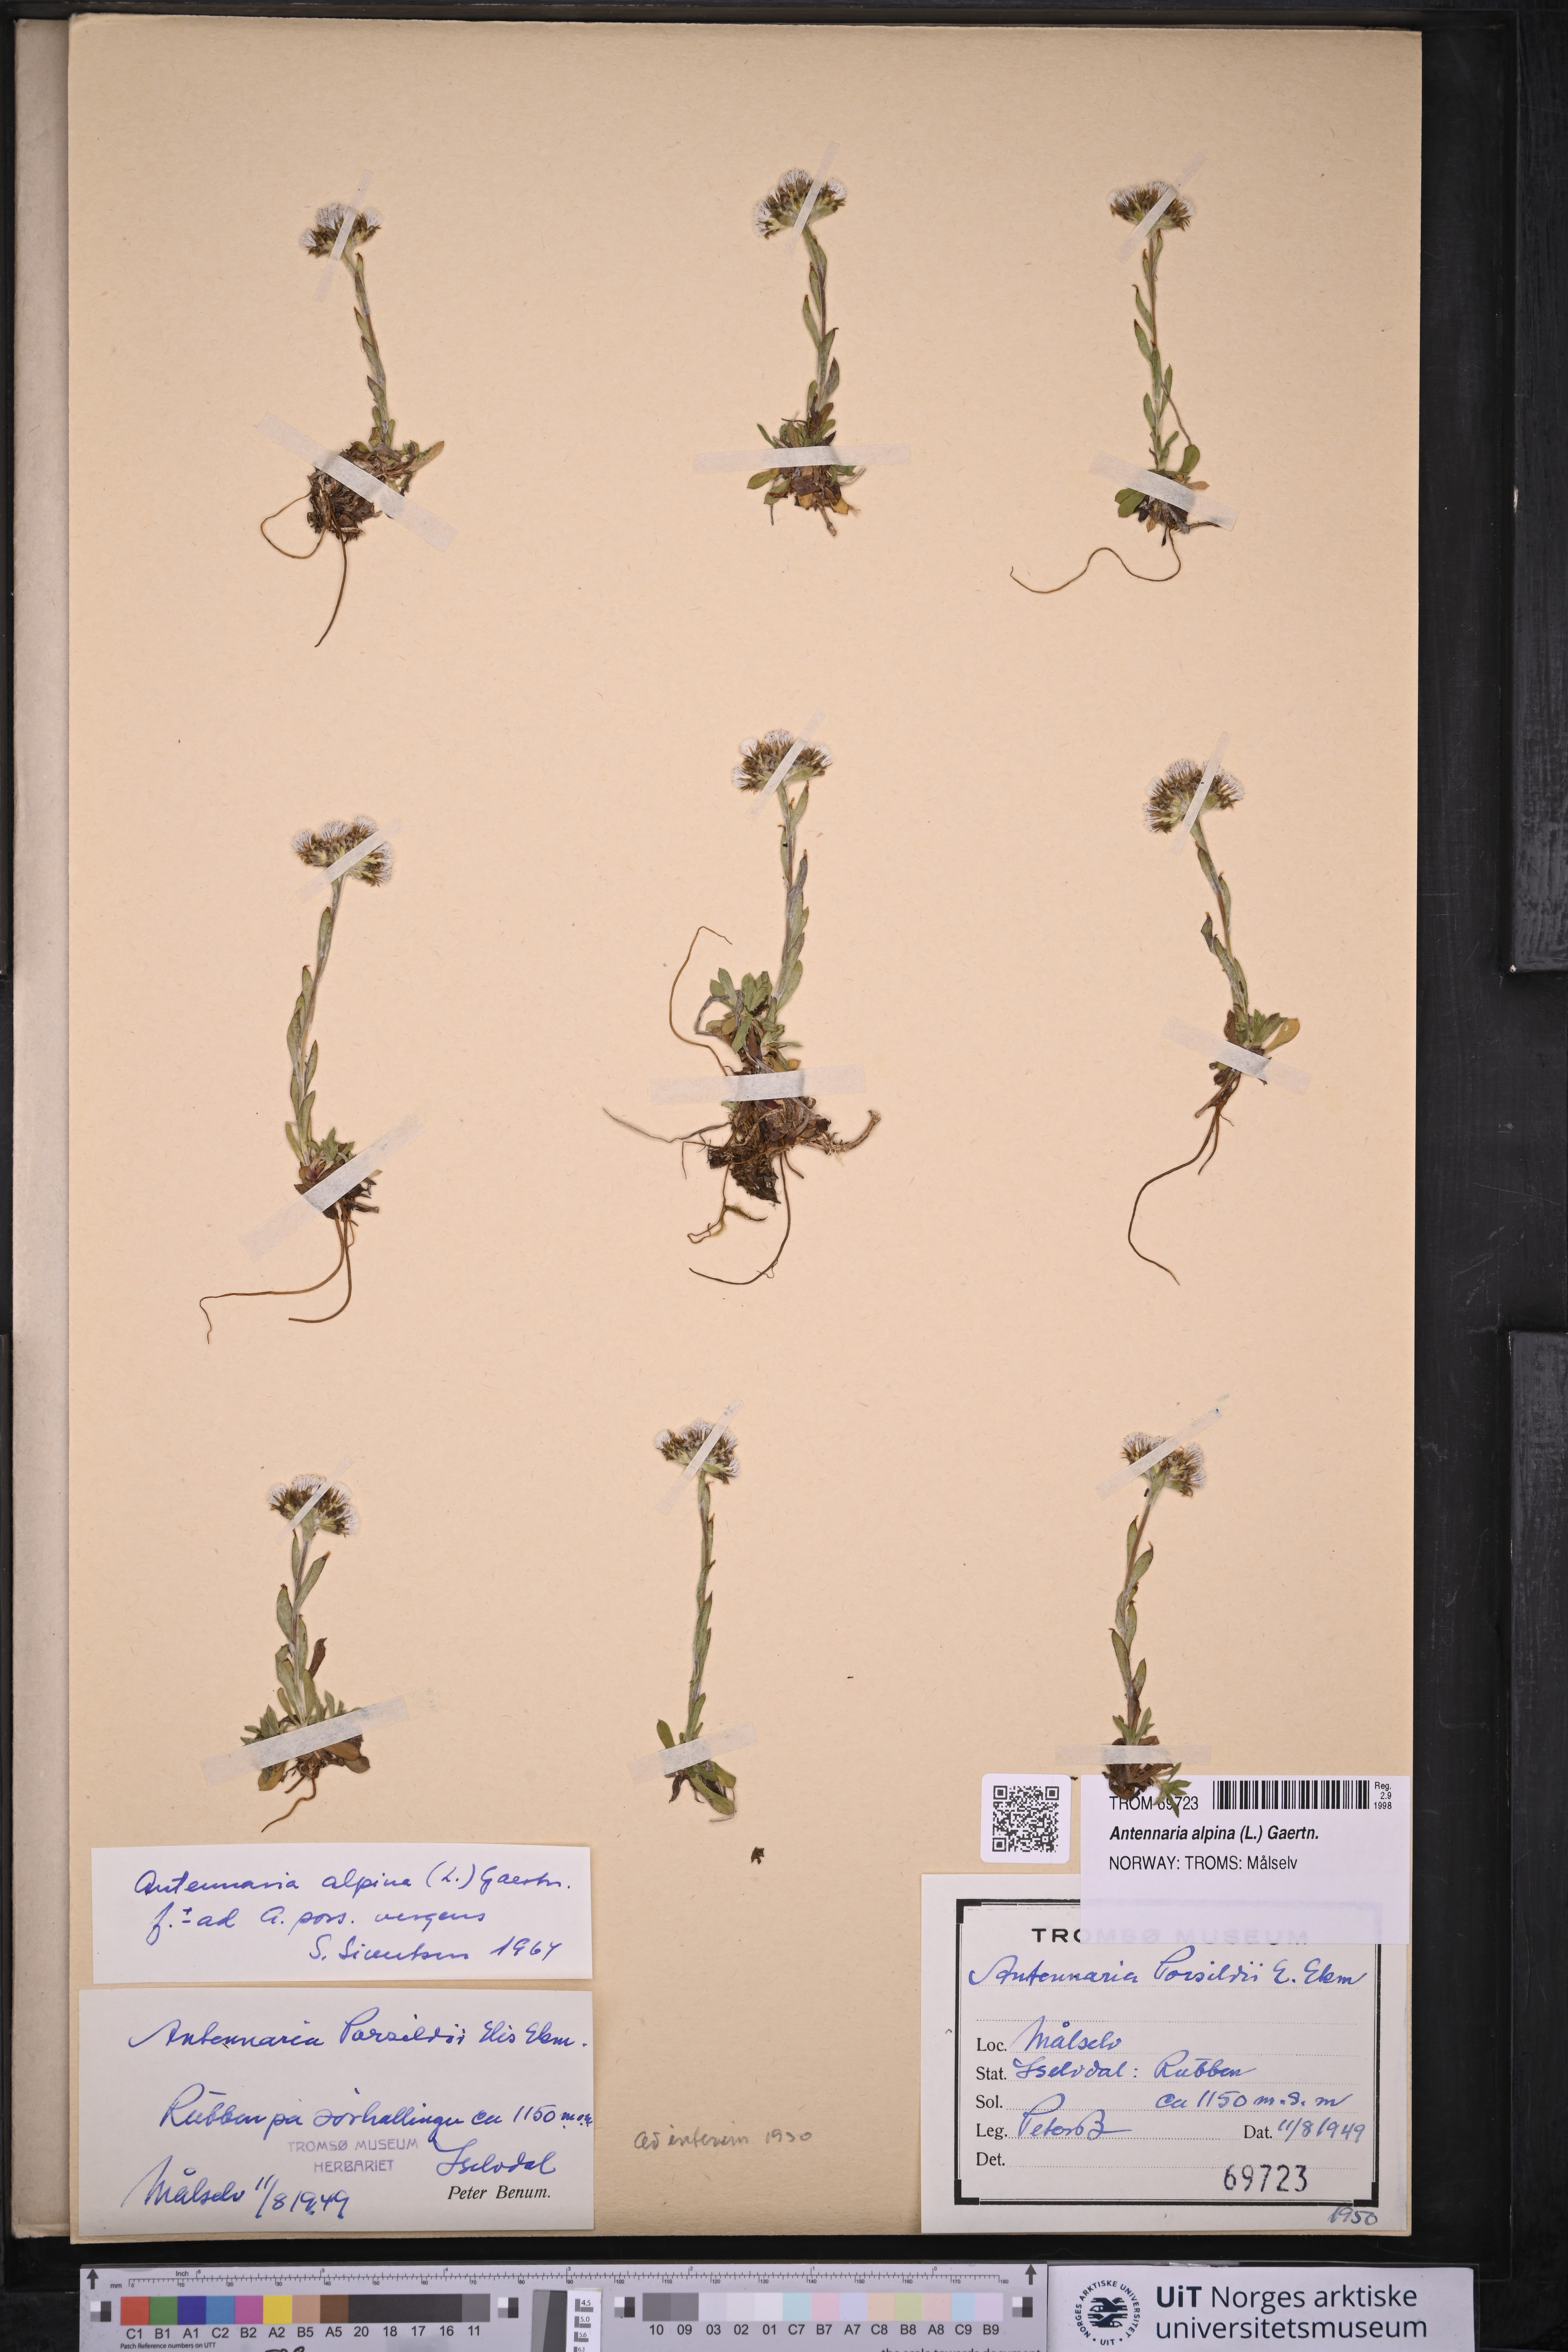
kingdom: Plantae
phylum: Tracheophyta
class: Magnoliopsida
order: Asterales
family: Asteraceae
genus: Antennaria
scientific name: Antennaria alpina
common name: Alpine pussytoes
